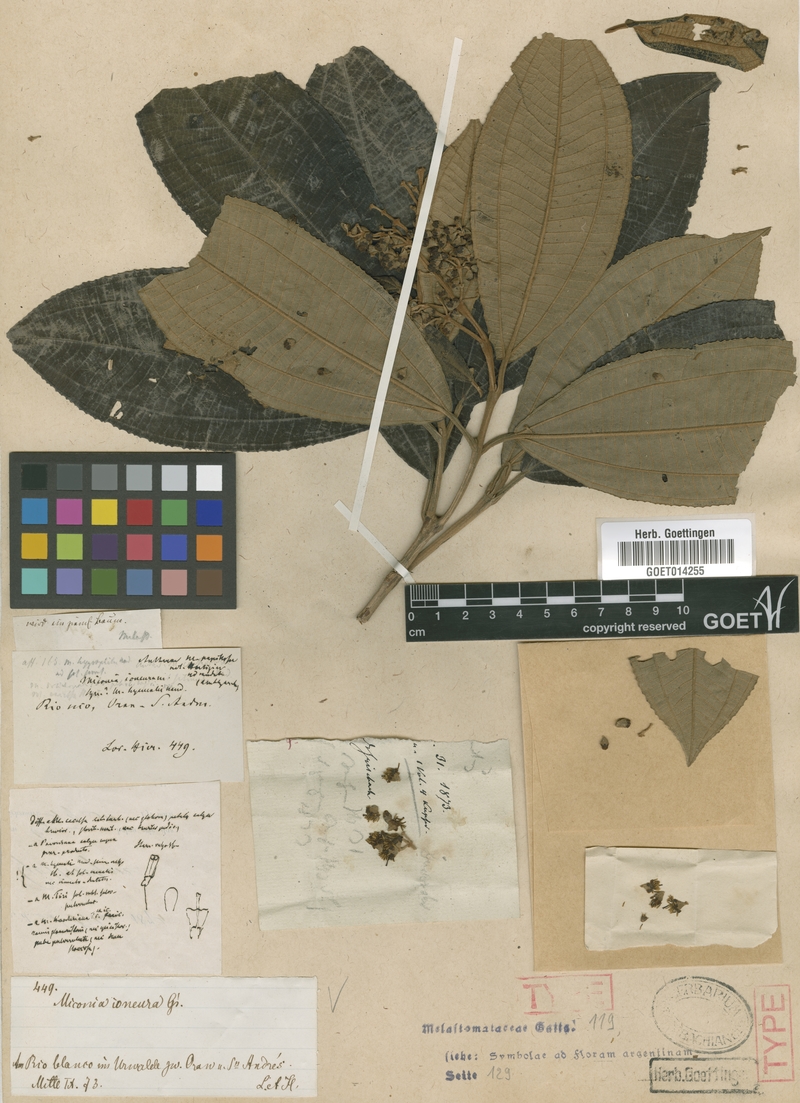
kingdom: Plantae
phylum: Tracheophyta
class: Magnoliopsida
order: Myrtales
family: Melastomataceae
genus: Miconia
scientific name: Miconia ioneura
